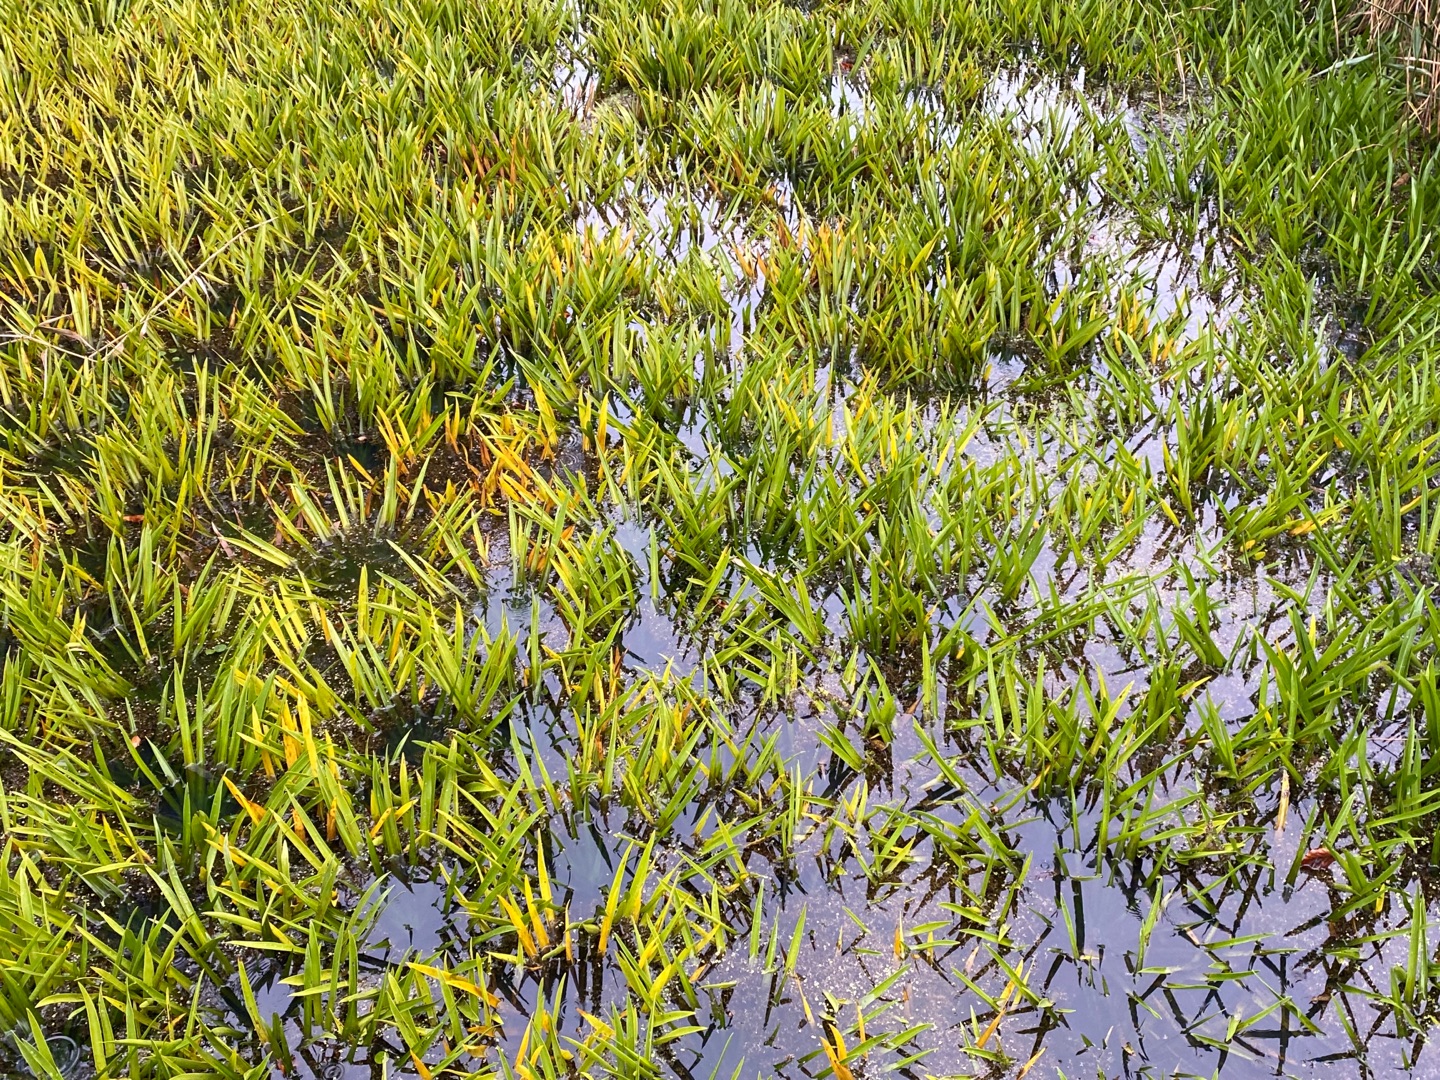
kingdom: Plantae
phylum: Tracheophyta
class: Liliopsida
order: Alismatales
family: Hydrocharitaceae
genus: Stratiotes
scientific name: Stratiotes aloides
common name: Krebseklo
